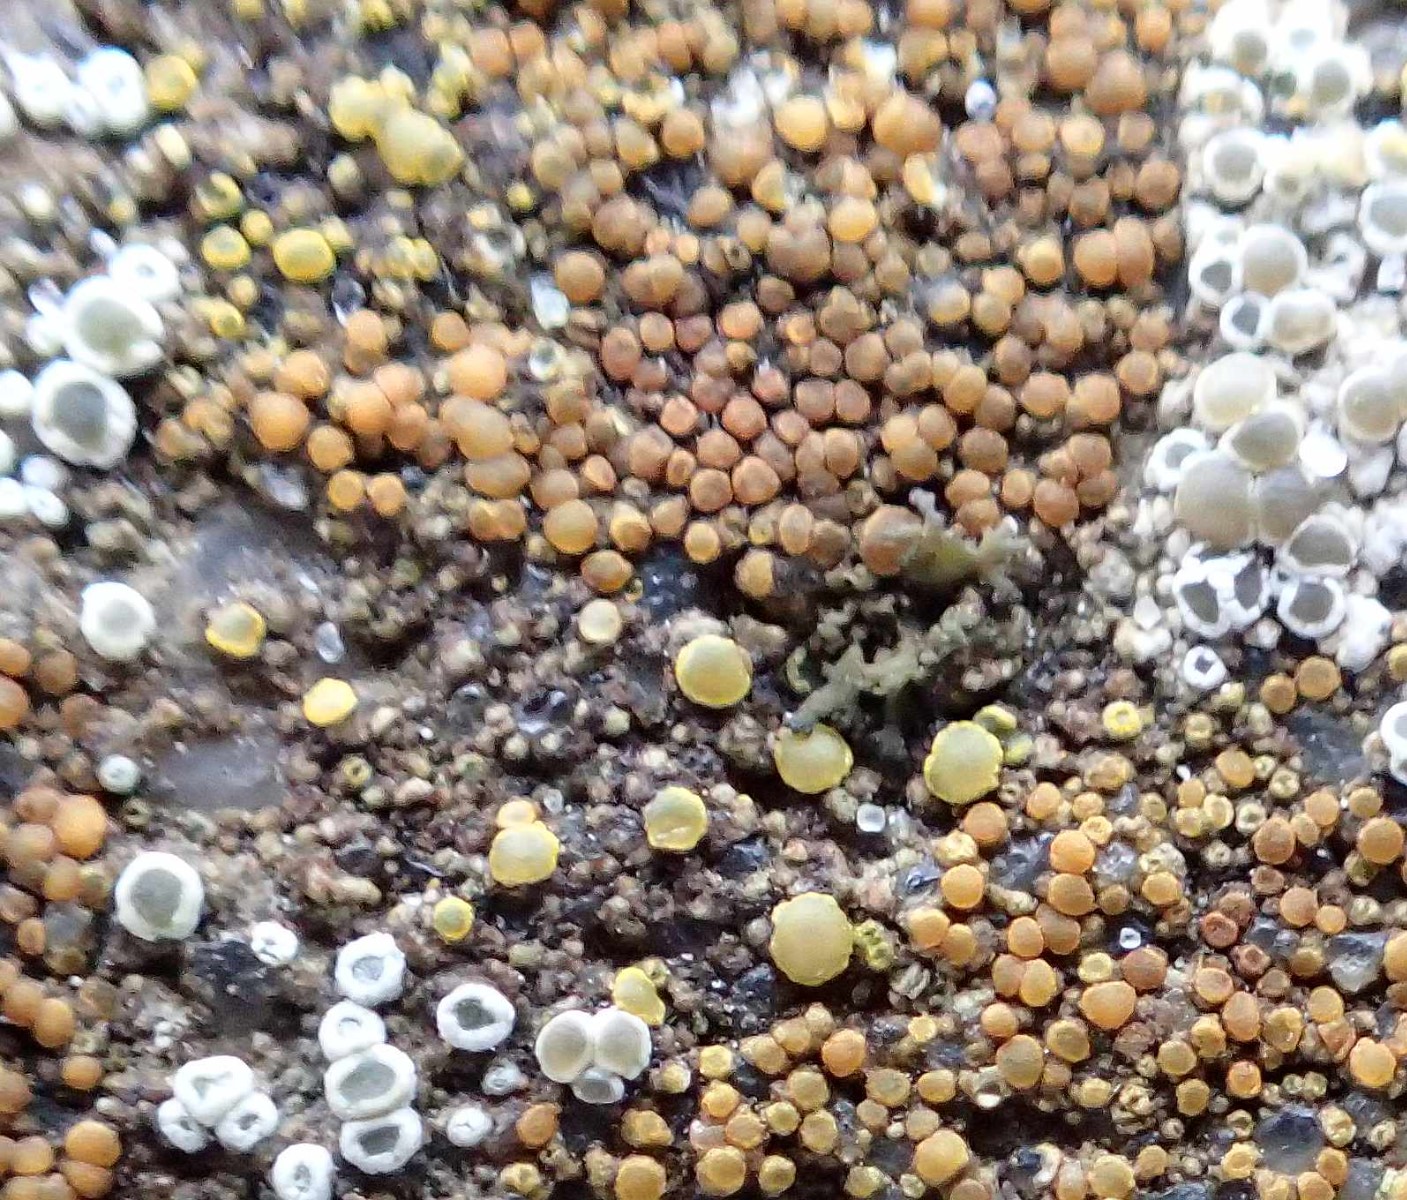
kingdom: Fungi
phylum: Ascomycota
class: Candelariomycetes
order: Candelariales
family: Candelariaceae
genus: Candelariella
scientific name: Candelariella aurella
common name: liden æggeblommelav
